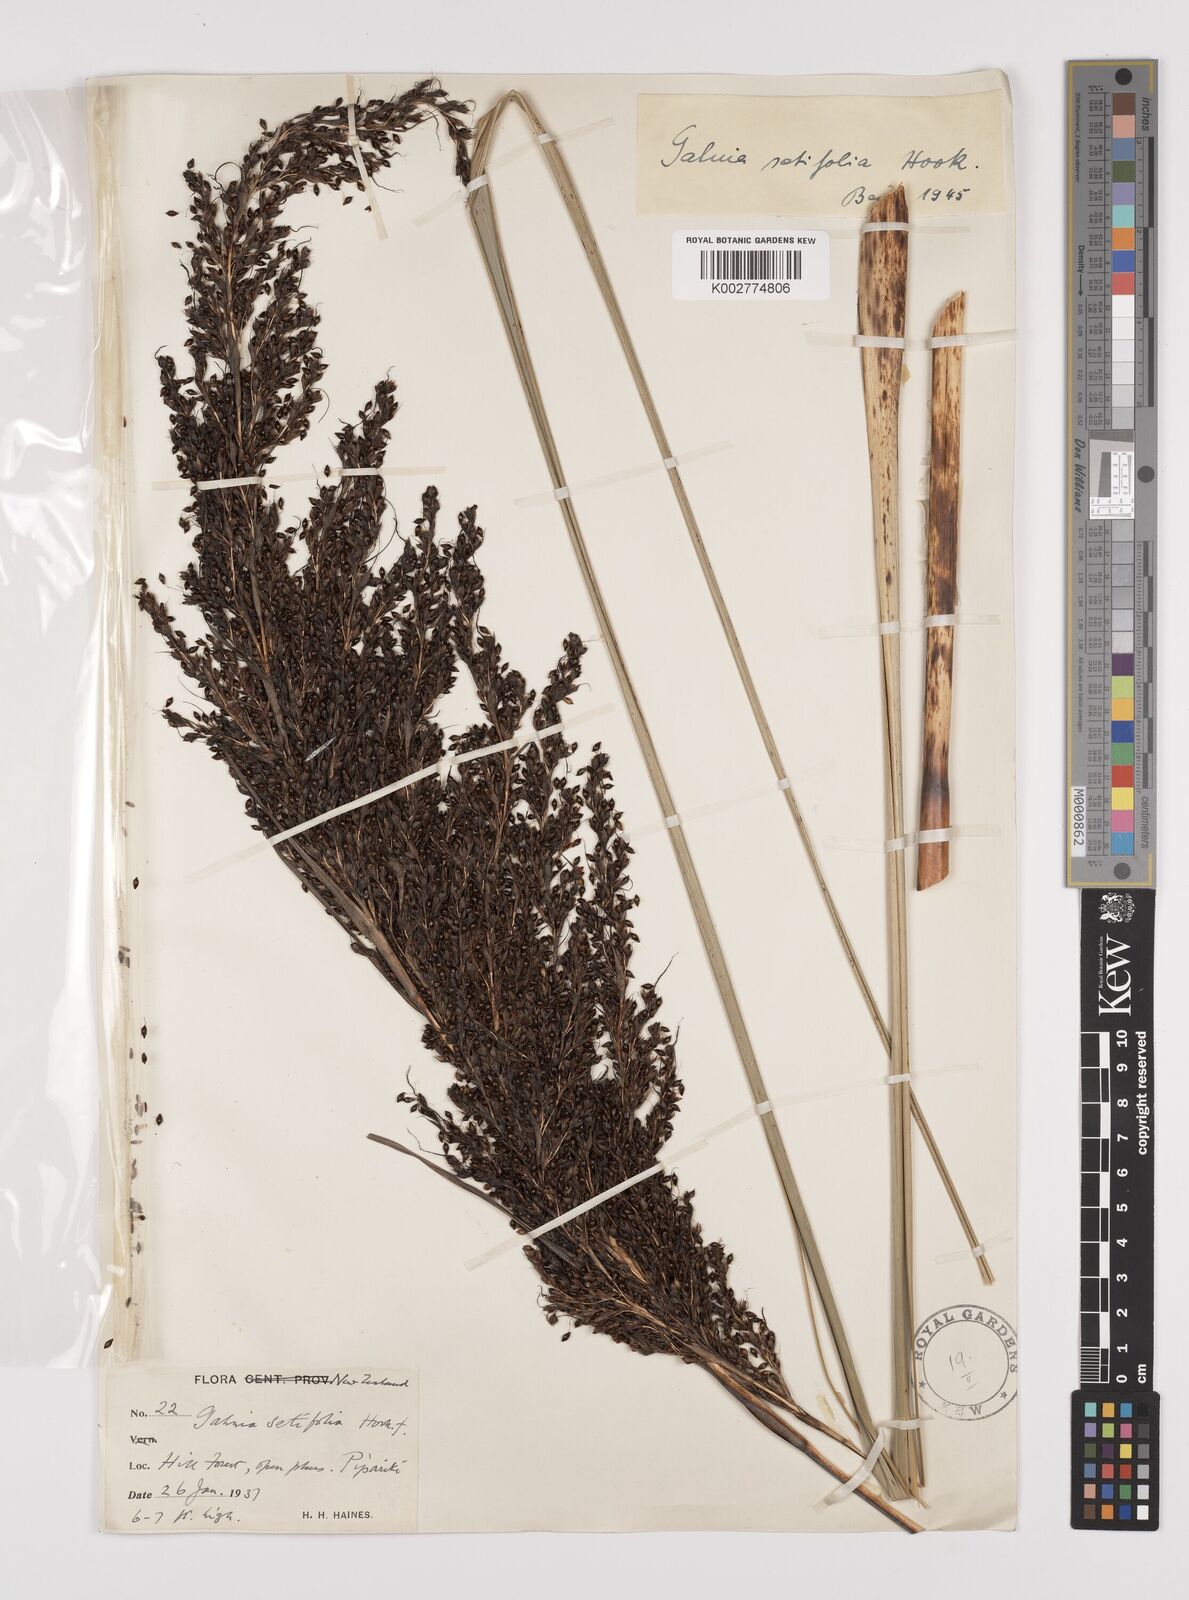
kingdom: Plantae
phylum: Tracheophyta
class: Liliopsida
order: Poales
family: Cyperaceae
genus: Gahnia
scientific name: Gahnia setifolia
